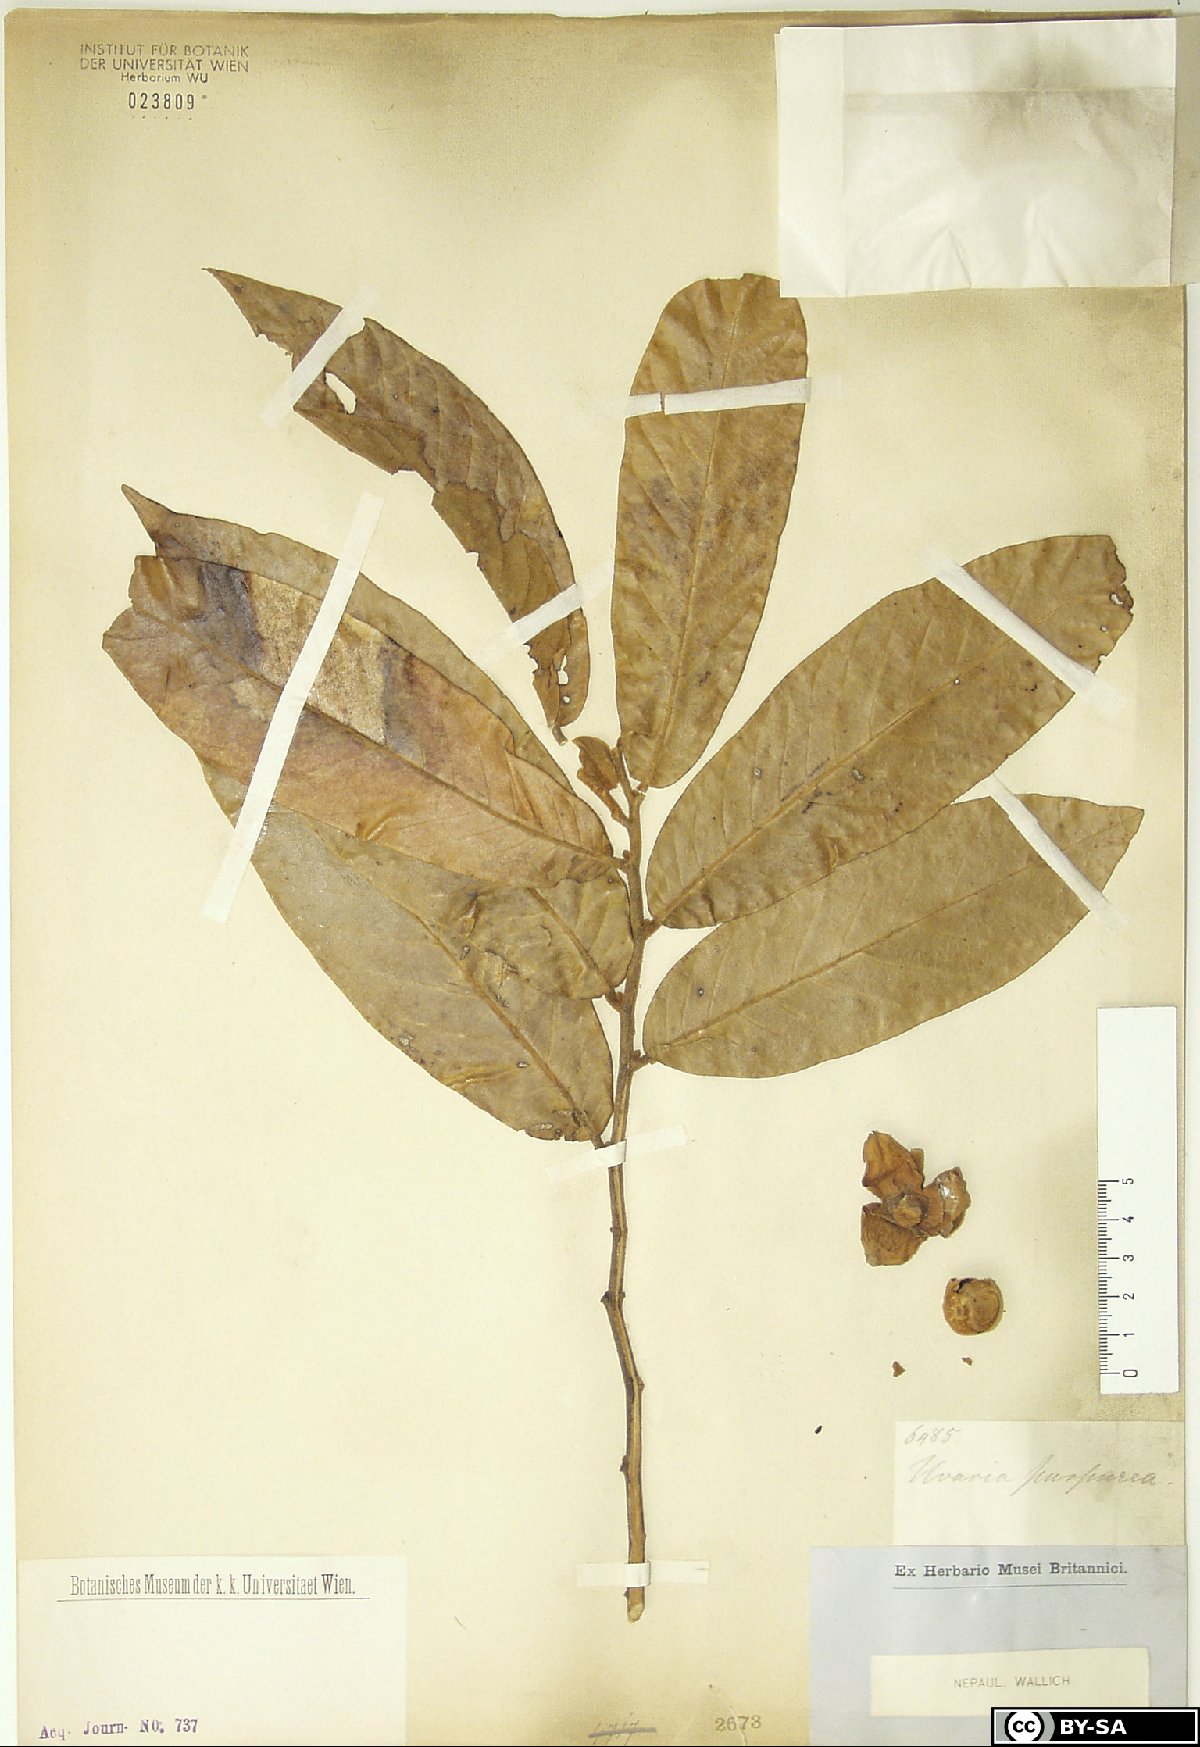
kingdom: Plantae
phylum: Tracheophyta
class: Magnoliopsida
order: Magnoliales
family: Annonaceae
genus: Uvaria
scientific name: Uvaria grandiflora
